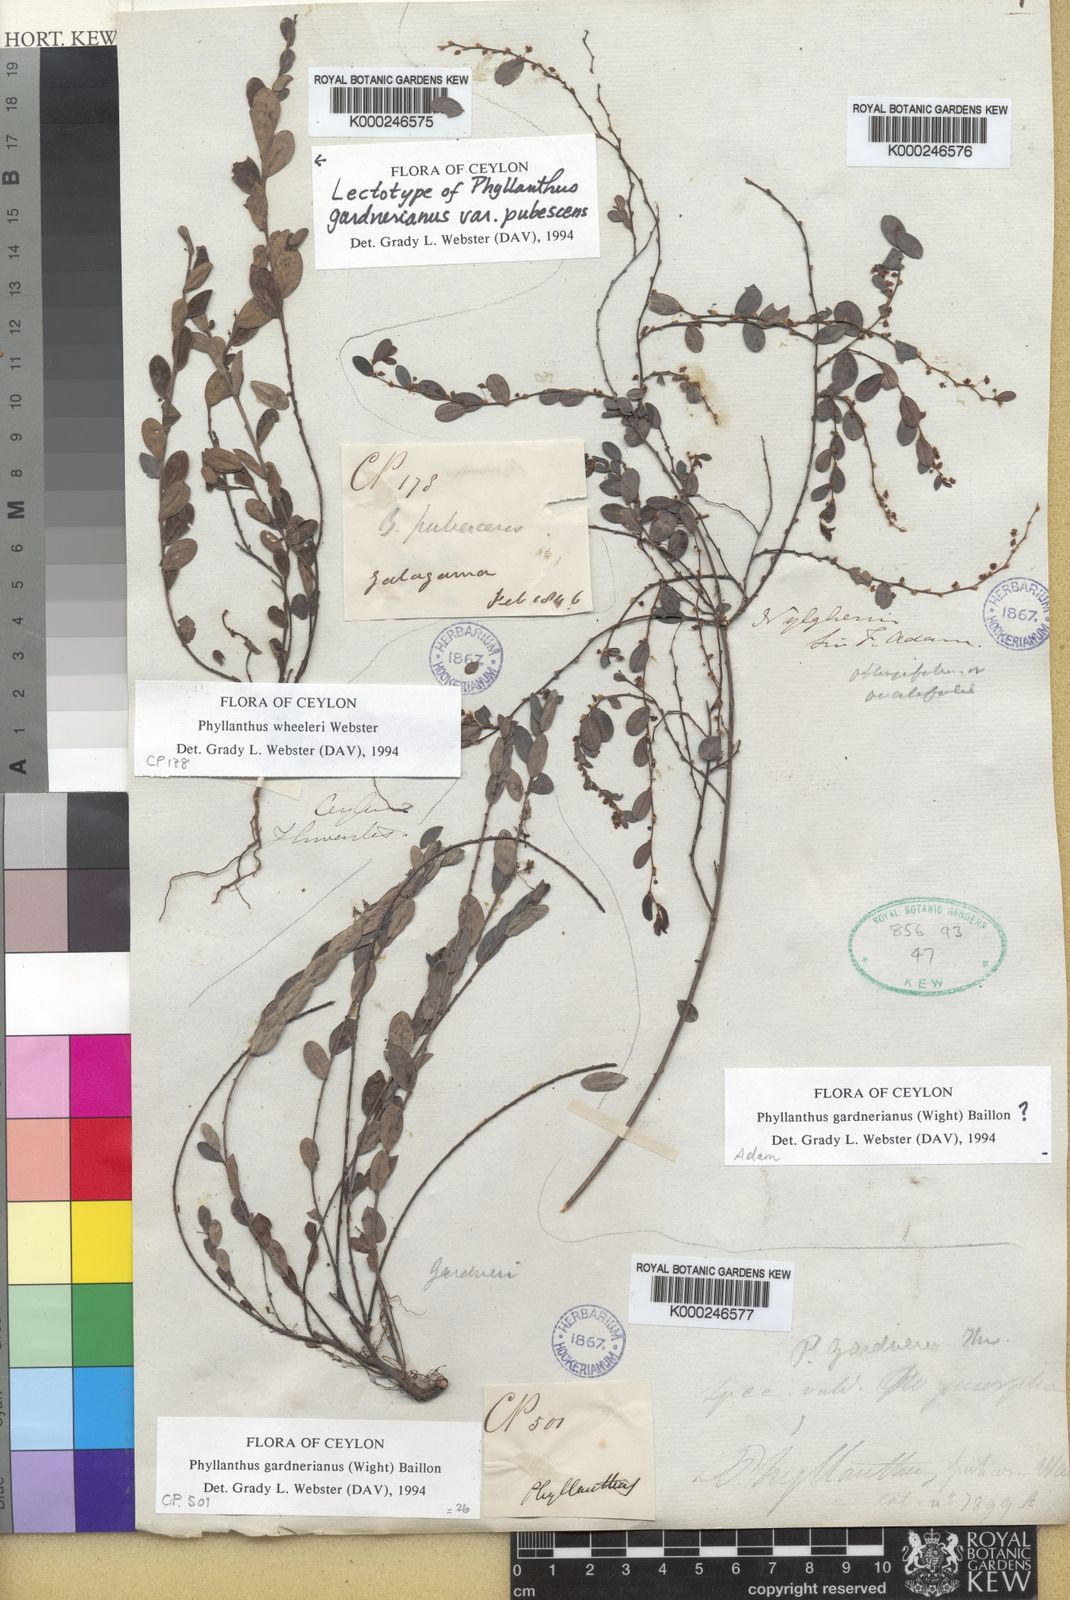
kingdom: Plantae
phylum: Tracheophyta
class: Magnoliopsida
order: Malpighiales
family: Phyllanthaceae
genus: Phyllanthus
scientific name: Phyllanthus wheeleri
